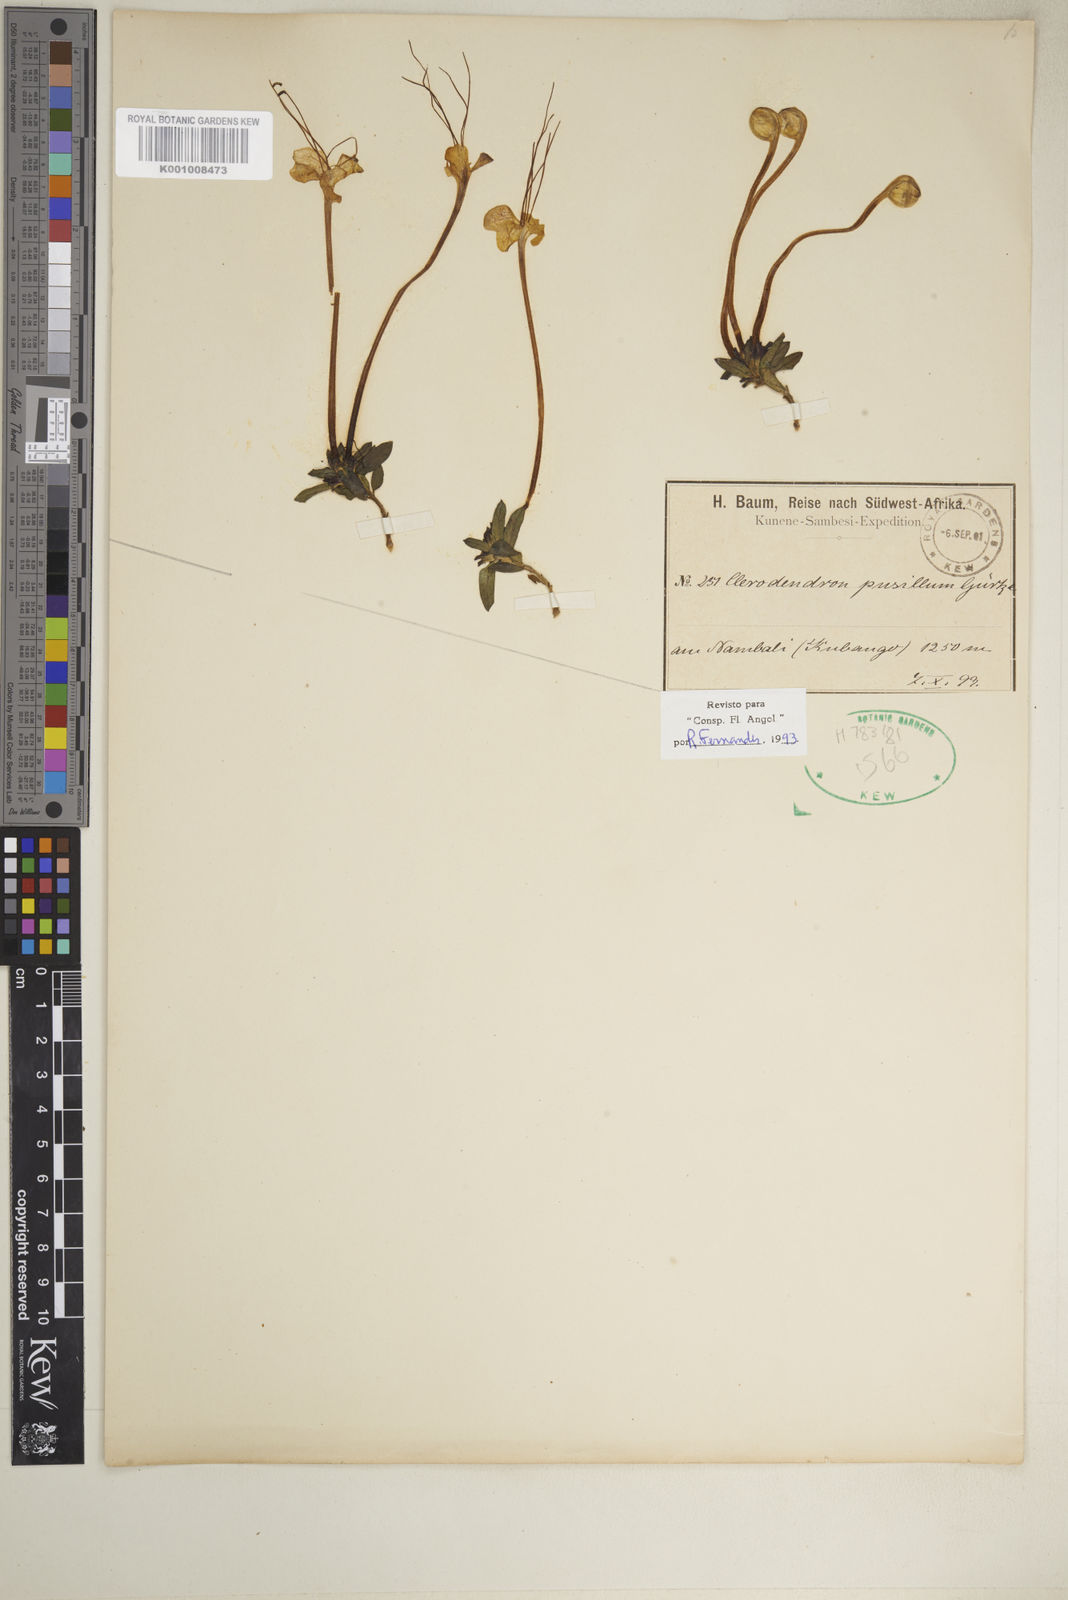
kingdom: Plantae
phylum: Tracheophyta
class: Magnoliopsida
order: Lamiales
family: Lamiaceae
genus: Clerodendrum
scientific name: Clerodendrum
